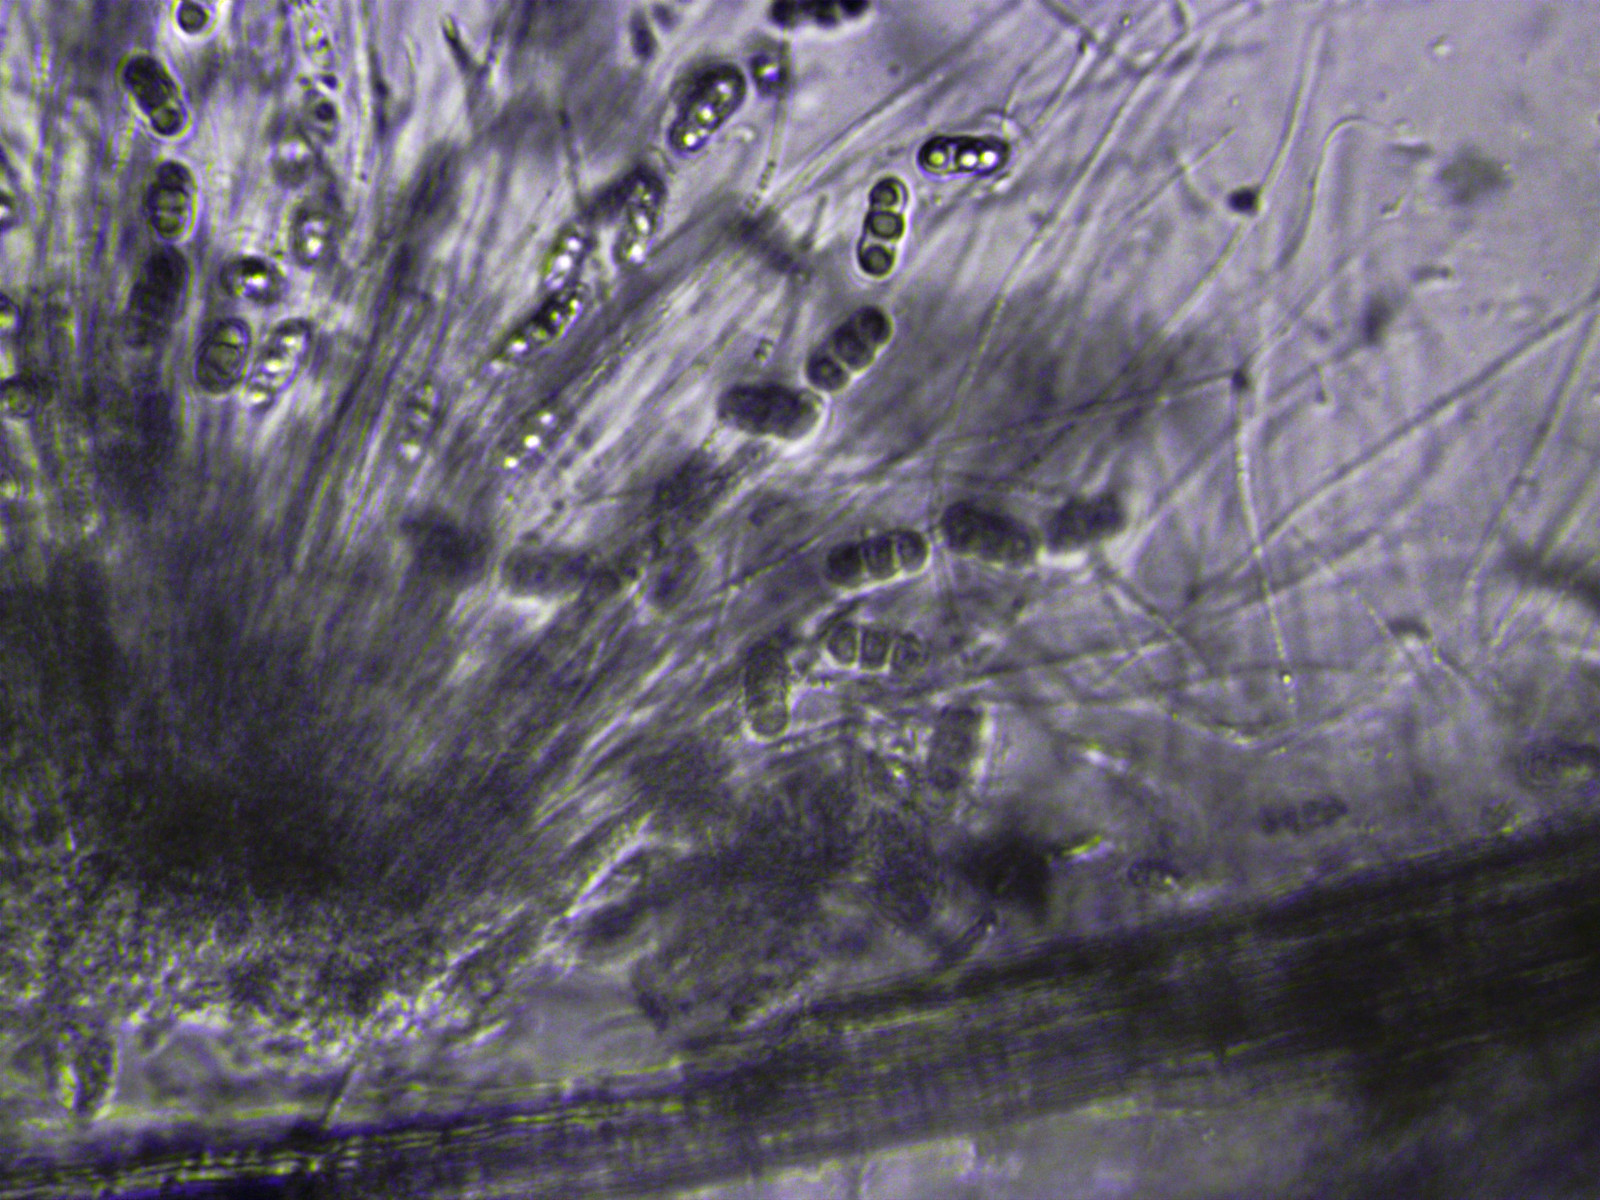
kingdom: Fungi
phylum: Ascomycota
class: Sordariomycetes
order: Xylariales
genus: Melomastia
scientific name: Melomastia mastoidea
